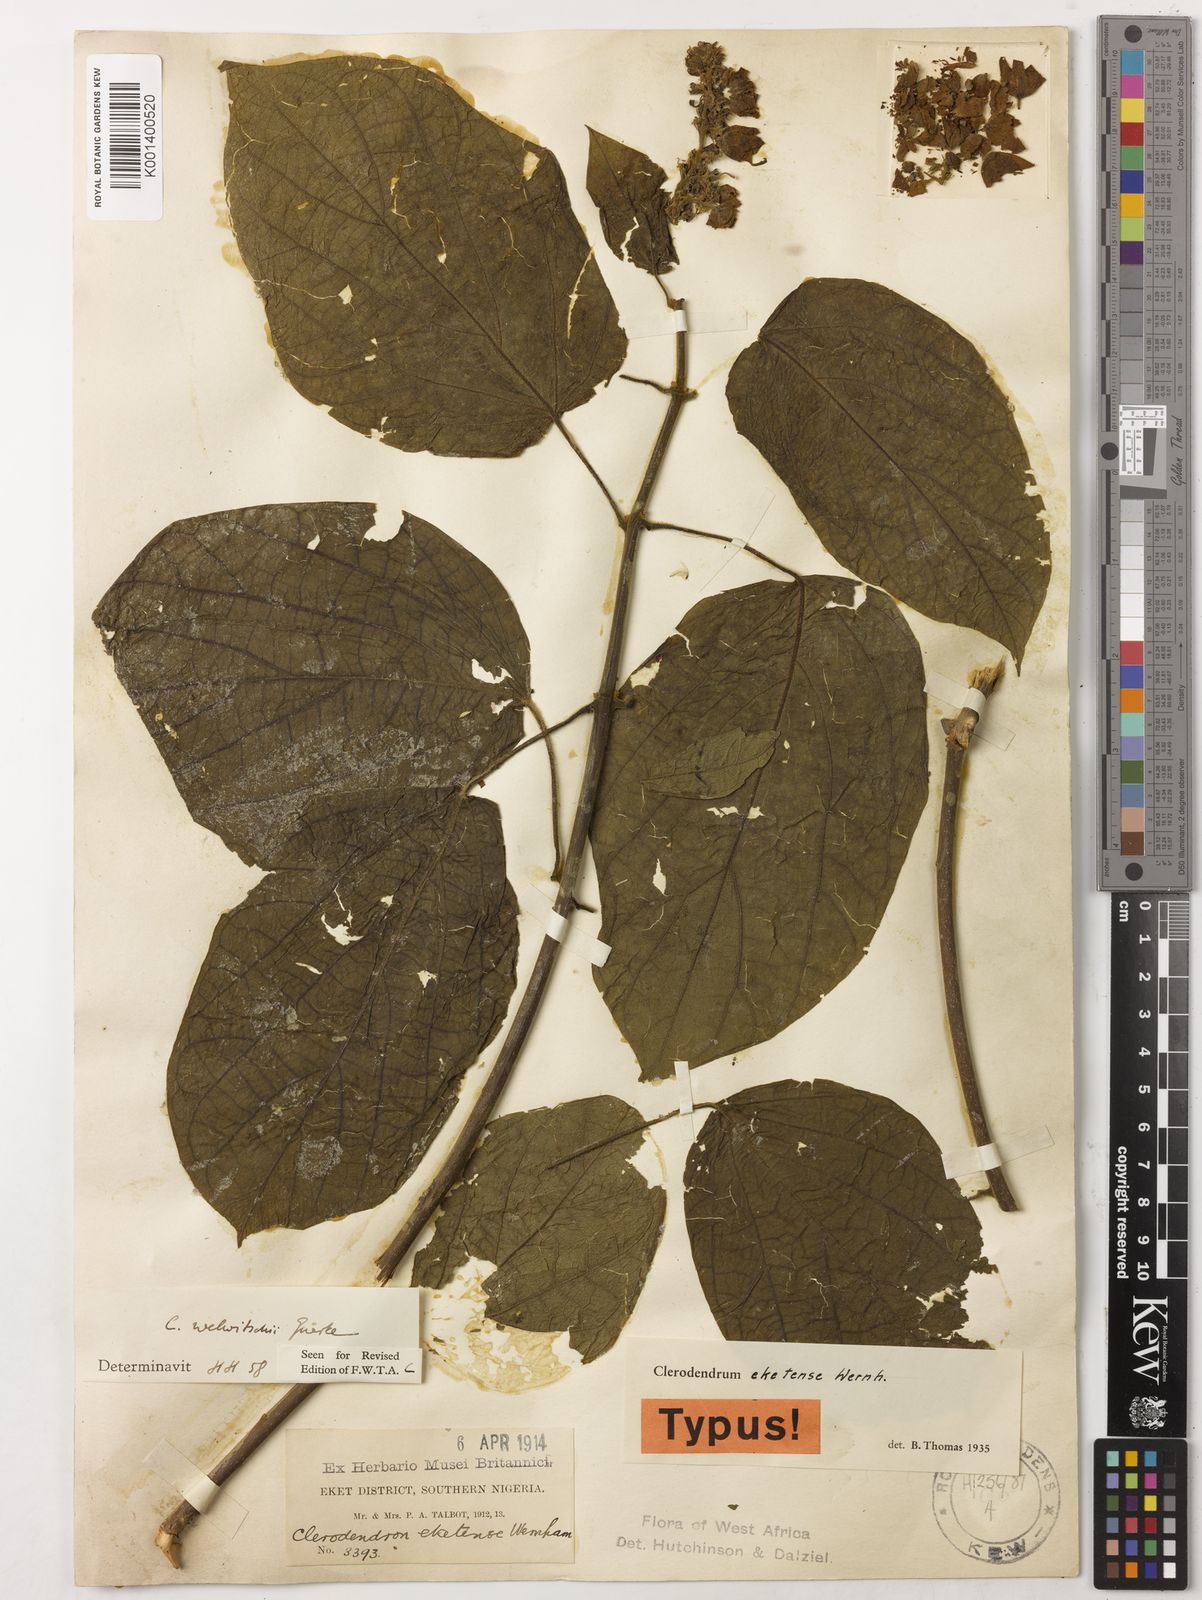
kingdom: Plantae
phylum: Tracheophyta
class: Magnoliopsida
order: Lamiales
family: Lamiaceae
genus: Clerodendrum
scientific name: Clerodendrum
